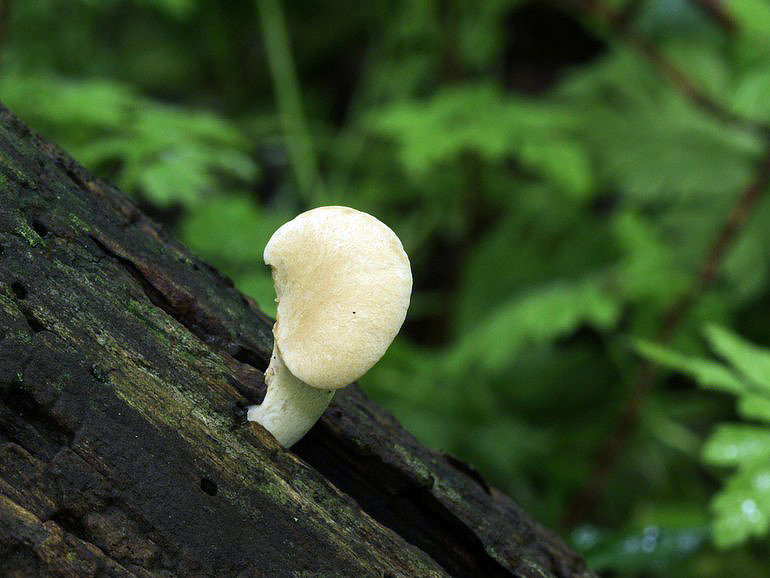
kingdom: Fungi
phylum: Basidiomycota
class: Agaricomycetes
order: Polyporales
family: Polyporaceae
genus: Cerioporus
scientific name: Cerioporus varius
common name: foranderlig stilkporesvamp
